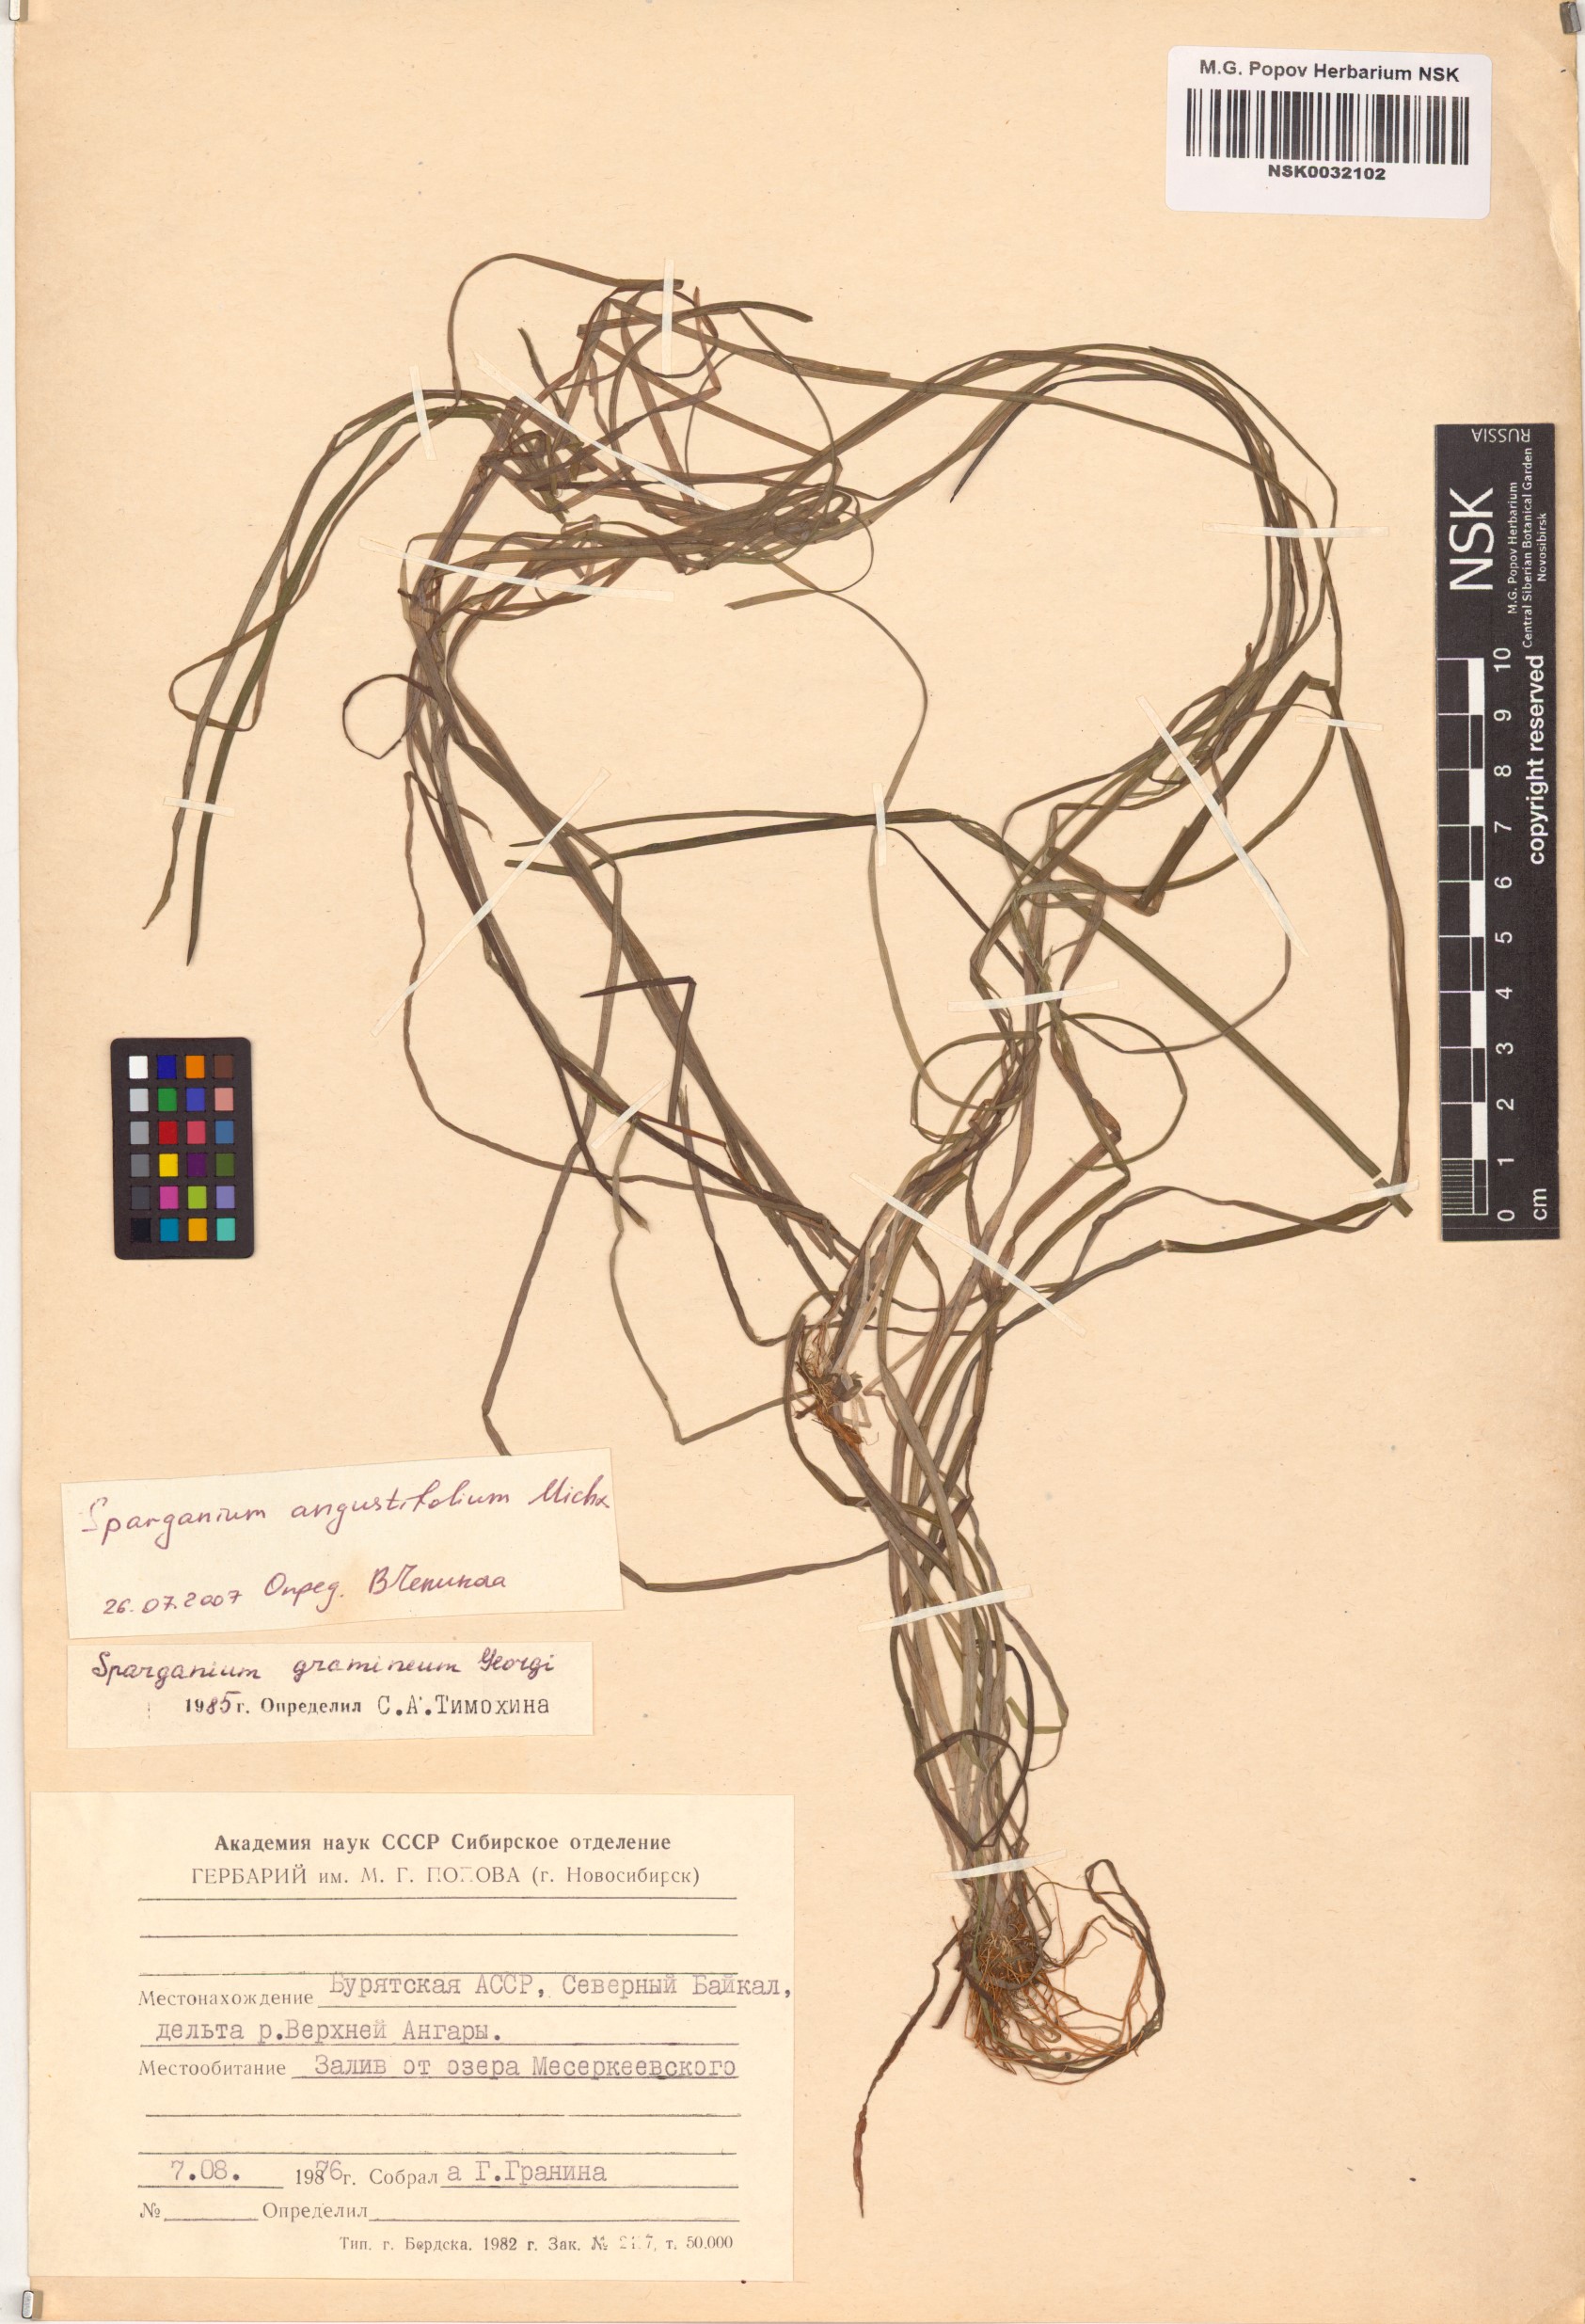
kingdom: Plantae
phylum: Tracheophyta
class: Liliopsida
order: Poales
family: Typhaceae
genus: Sparganium
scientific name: Sparganium angustifolium
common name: Floating bur-reed
